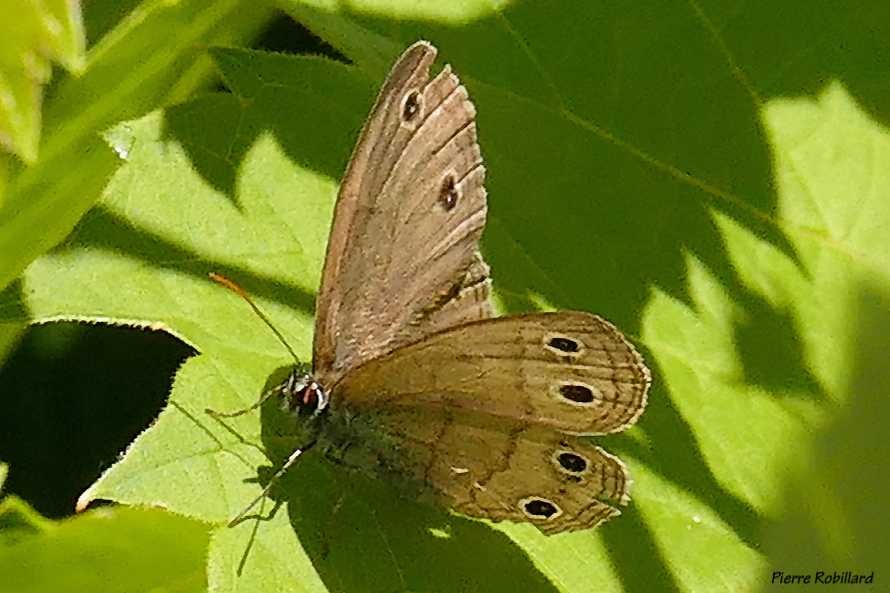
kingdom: Animalia
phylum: Arthropoda
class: Insecta
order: Lepidoptera
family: Nymphalidae
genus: Euptychia
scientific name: Euptychia cymela
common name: Little Wood Satyr
